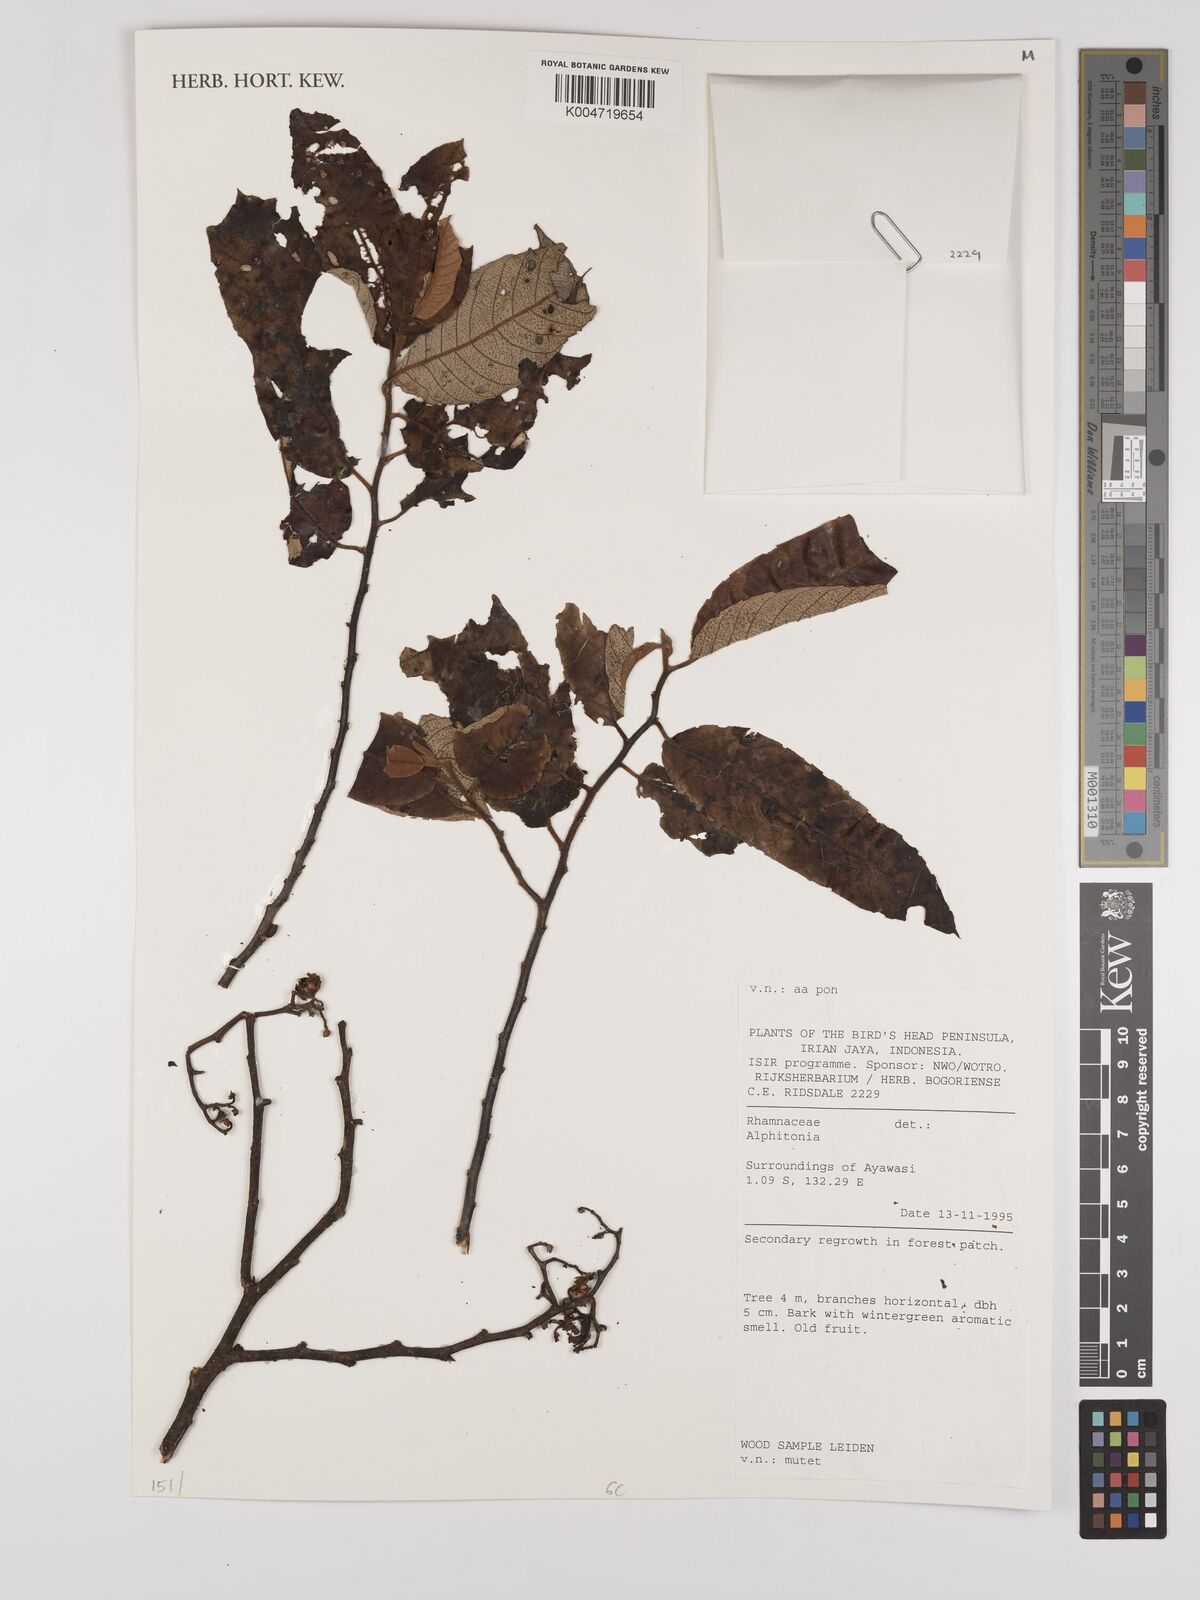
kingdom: Plantae
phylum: Tracheophyta
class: Magnoliopsida
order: Rosales
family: Rhamnaceae
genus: Alphitonia
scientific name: Alphitonia
